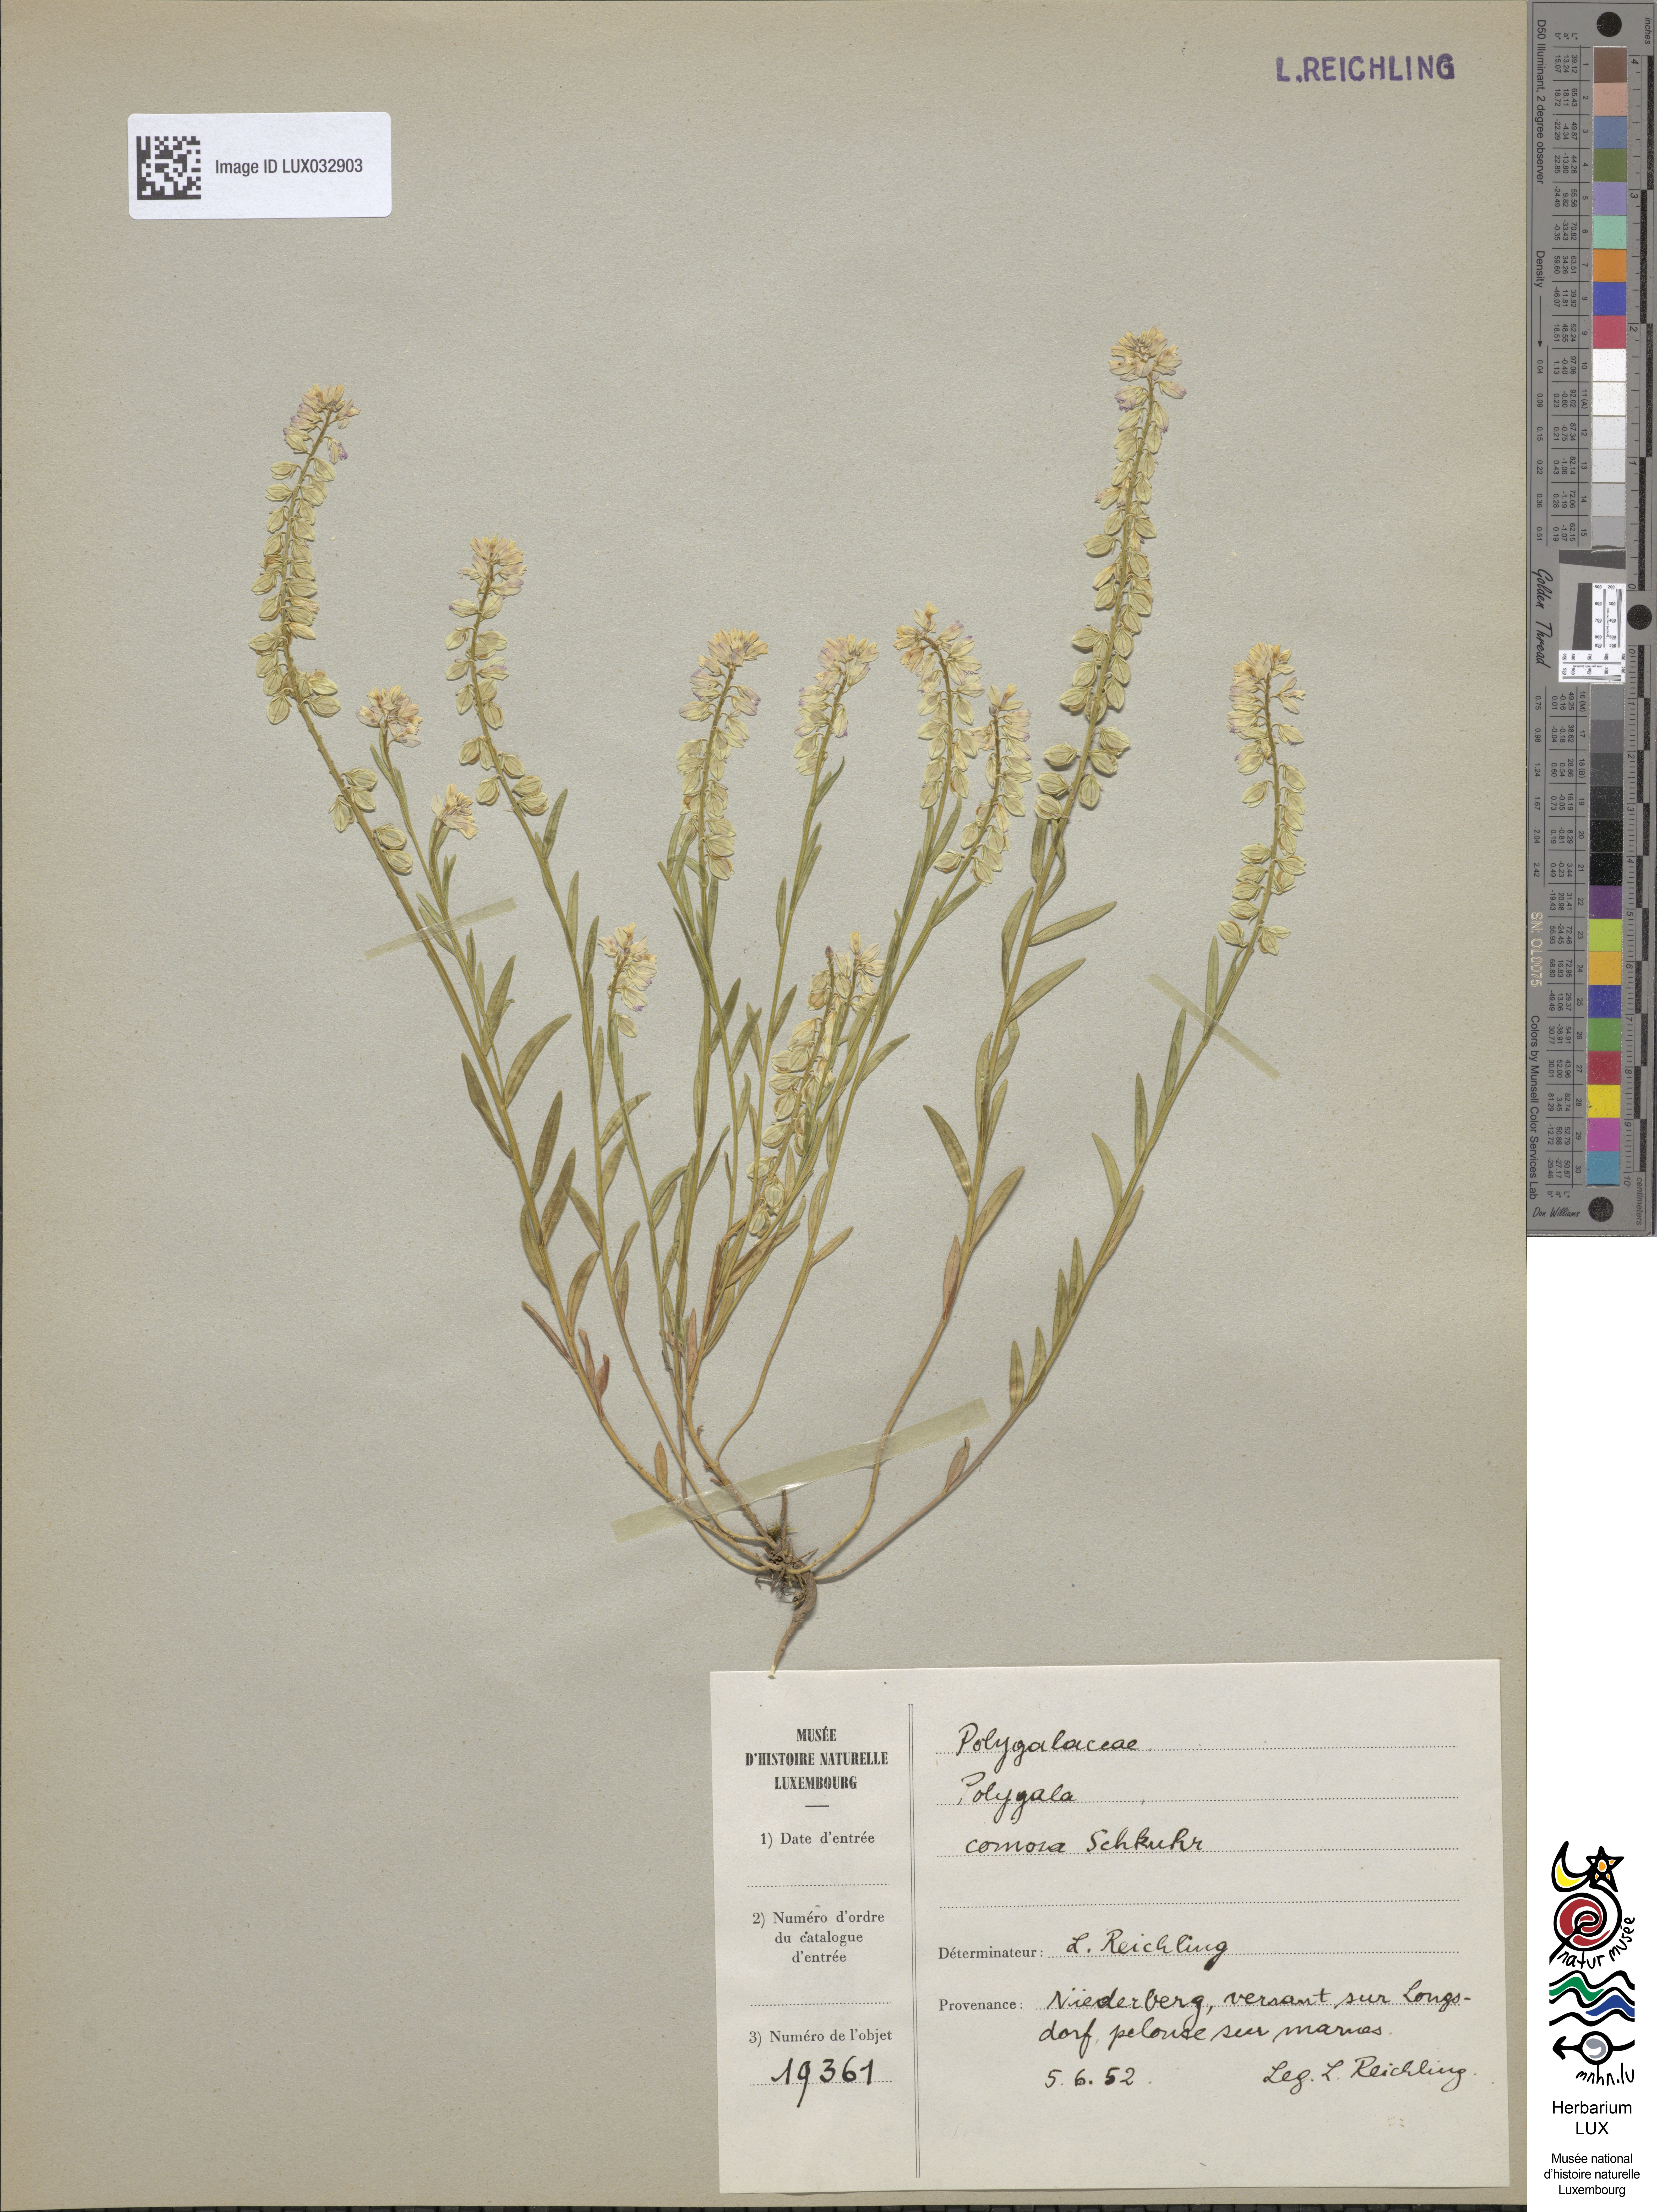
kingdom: Plantae
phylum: Tracheophyta
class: Magnoliopsida
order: Fabales
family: Polygalaceae
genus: Polygala
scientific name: Polygala comosa
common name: Tufted milkwort
